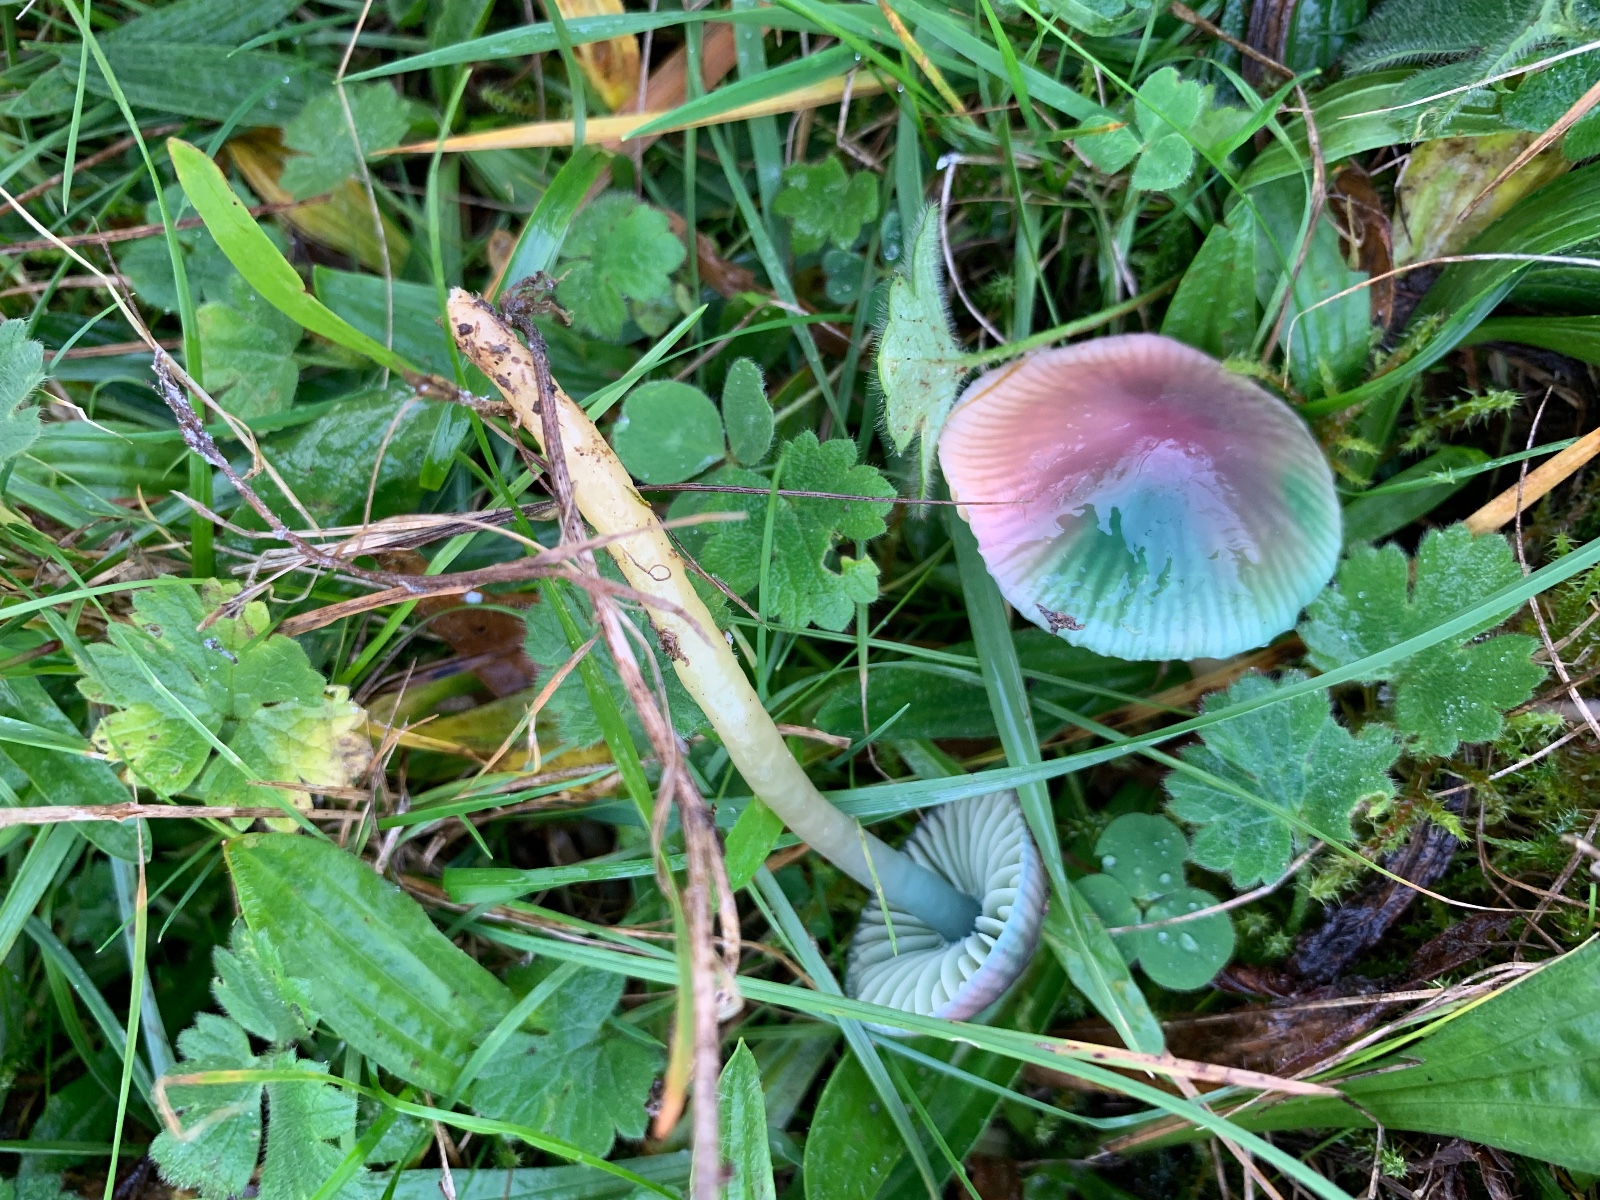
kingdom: Fungi
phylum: Basidiomycota
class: Agaricomycetes
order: Agaricales
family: Hygrophoraceae
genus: Gliophorus
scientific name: Gliophorus psittacinus
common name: papegøje-vokshat
